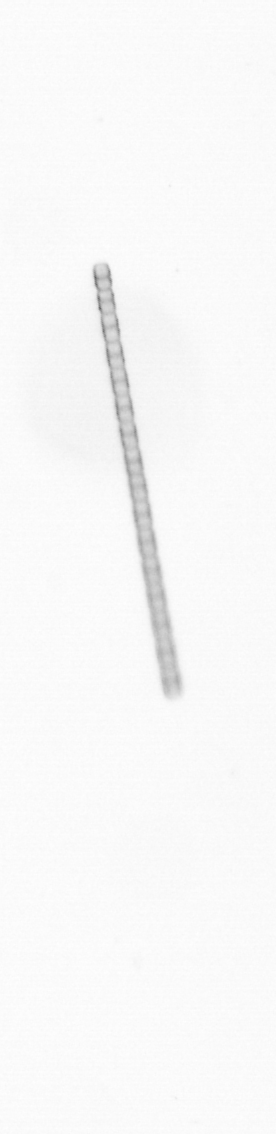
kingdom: Chromista
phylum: Ochrophyta
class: Bacillariophyceae
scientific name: Bacillariophyceae
